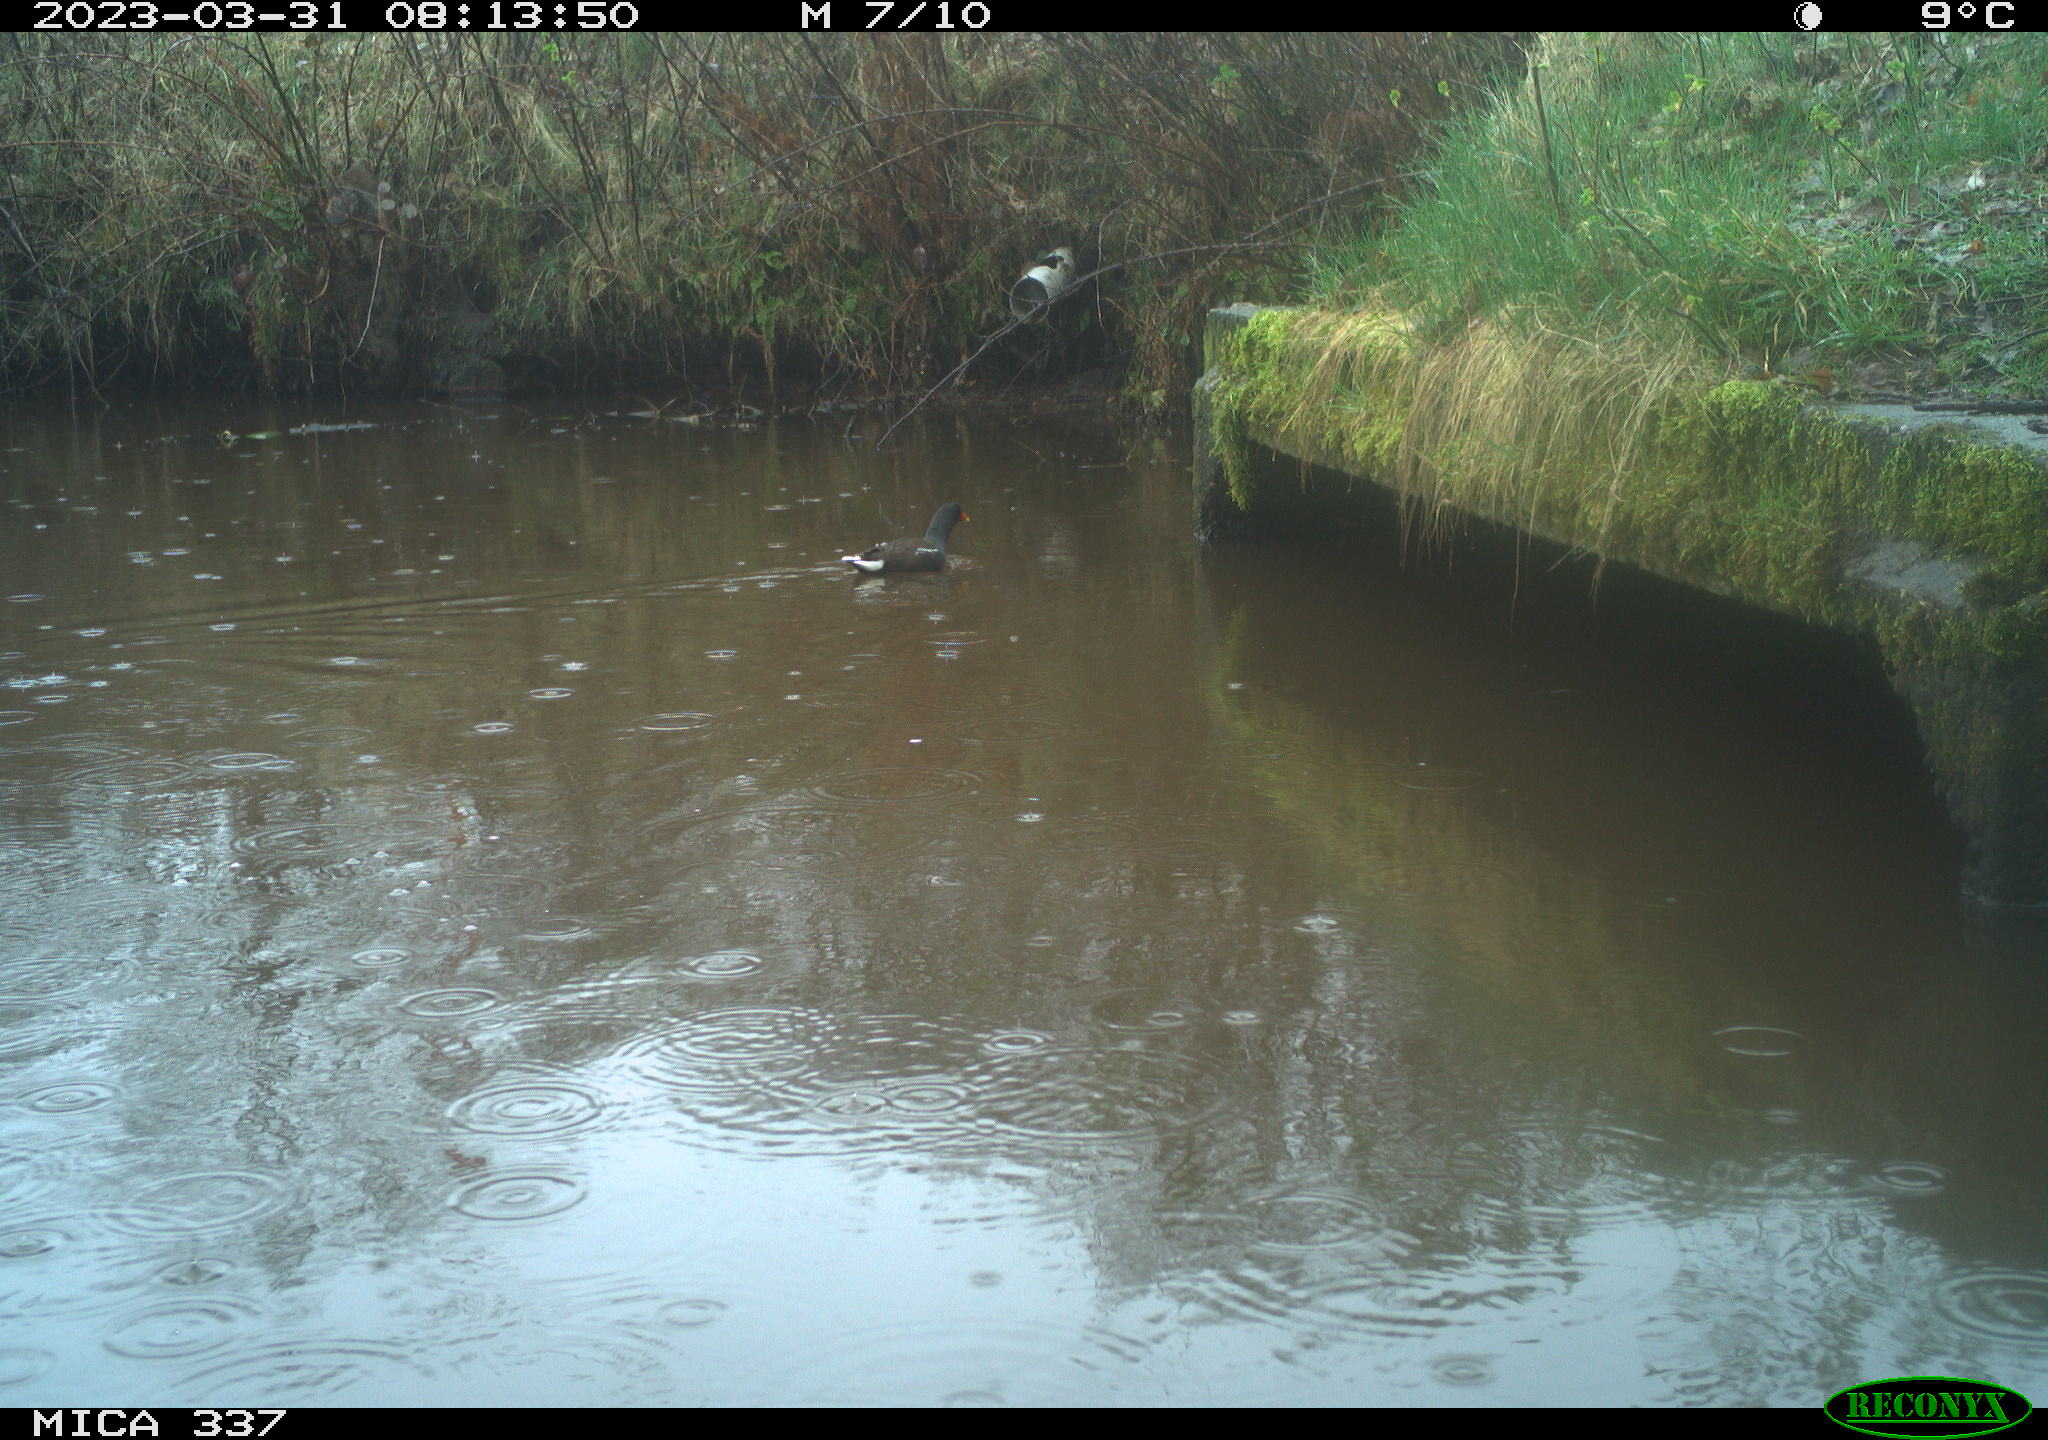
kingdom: Animalia
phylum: Chordata
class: Aves
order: Gruiformes
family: Rallidae
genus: Gallinula
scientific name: Gallinula chloropus
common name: Common moorhen
